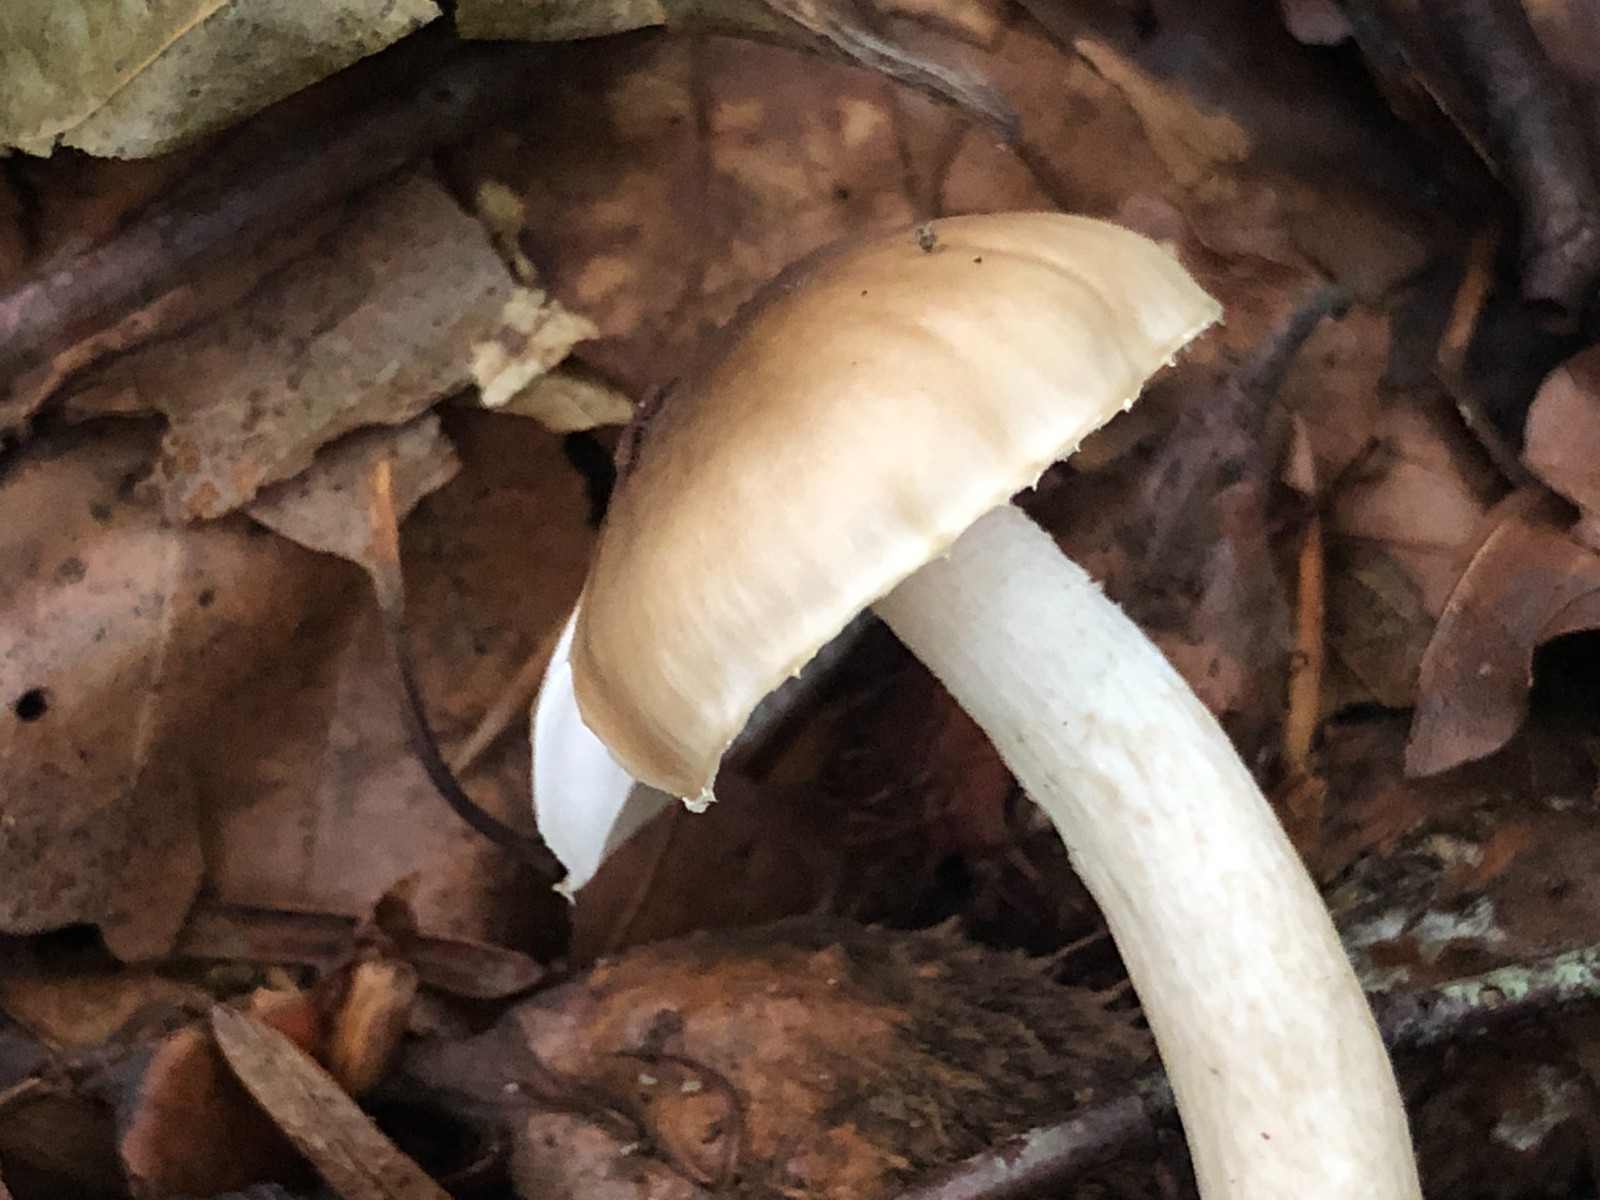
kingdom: Fungi
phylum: Basidiomycota
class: Agaricomycetes
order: Agaricales
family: Hygrophoraceae
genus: Hygrophorus
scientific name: Hygrophorus mesotephrus
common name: askegrå sneglehat
